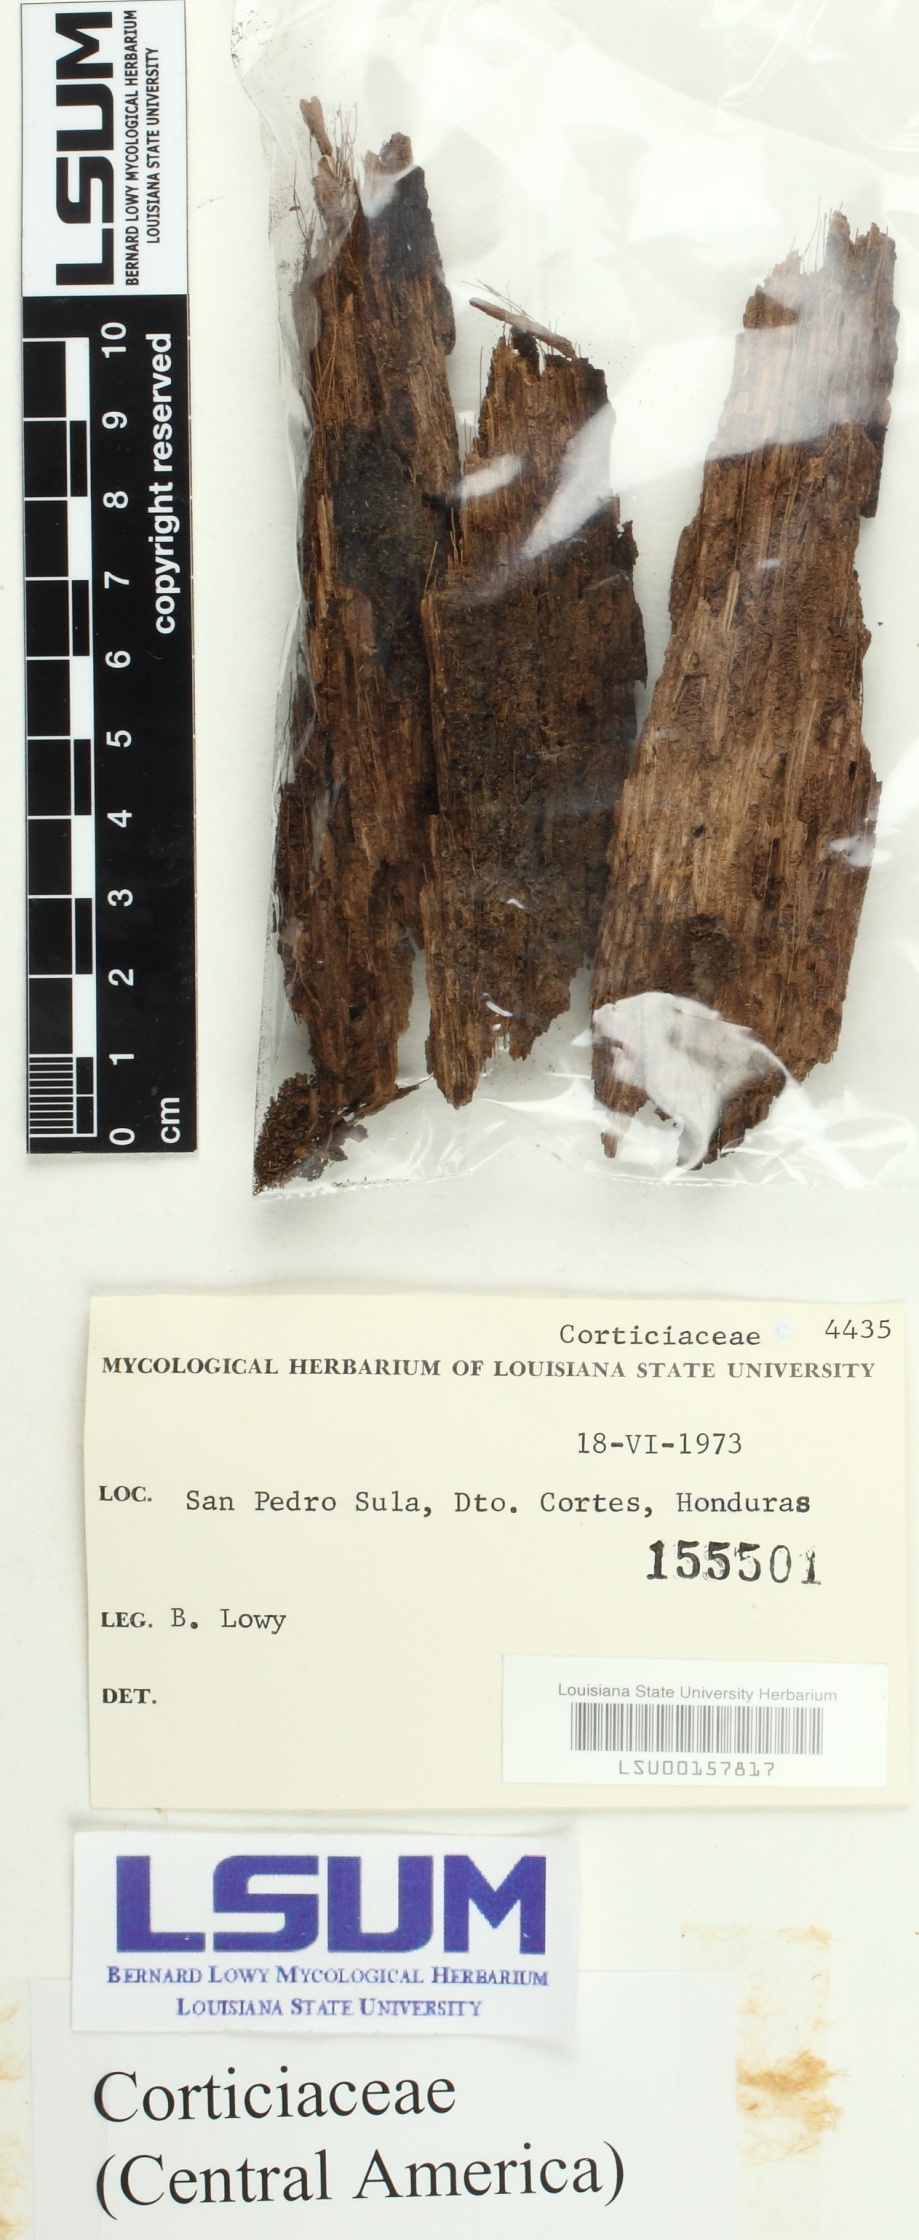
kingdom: Fungi
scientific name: Fungi
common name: Fungi
